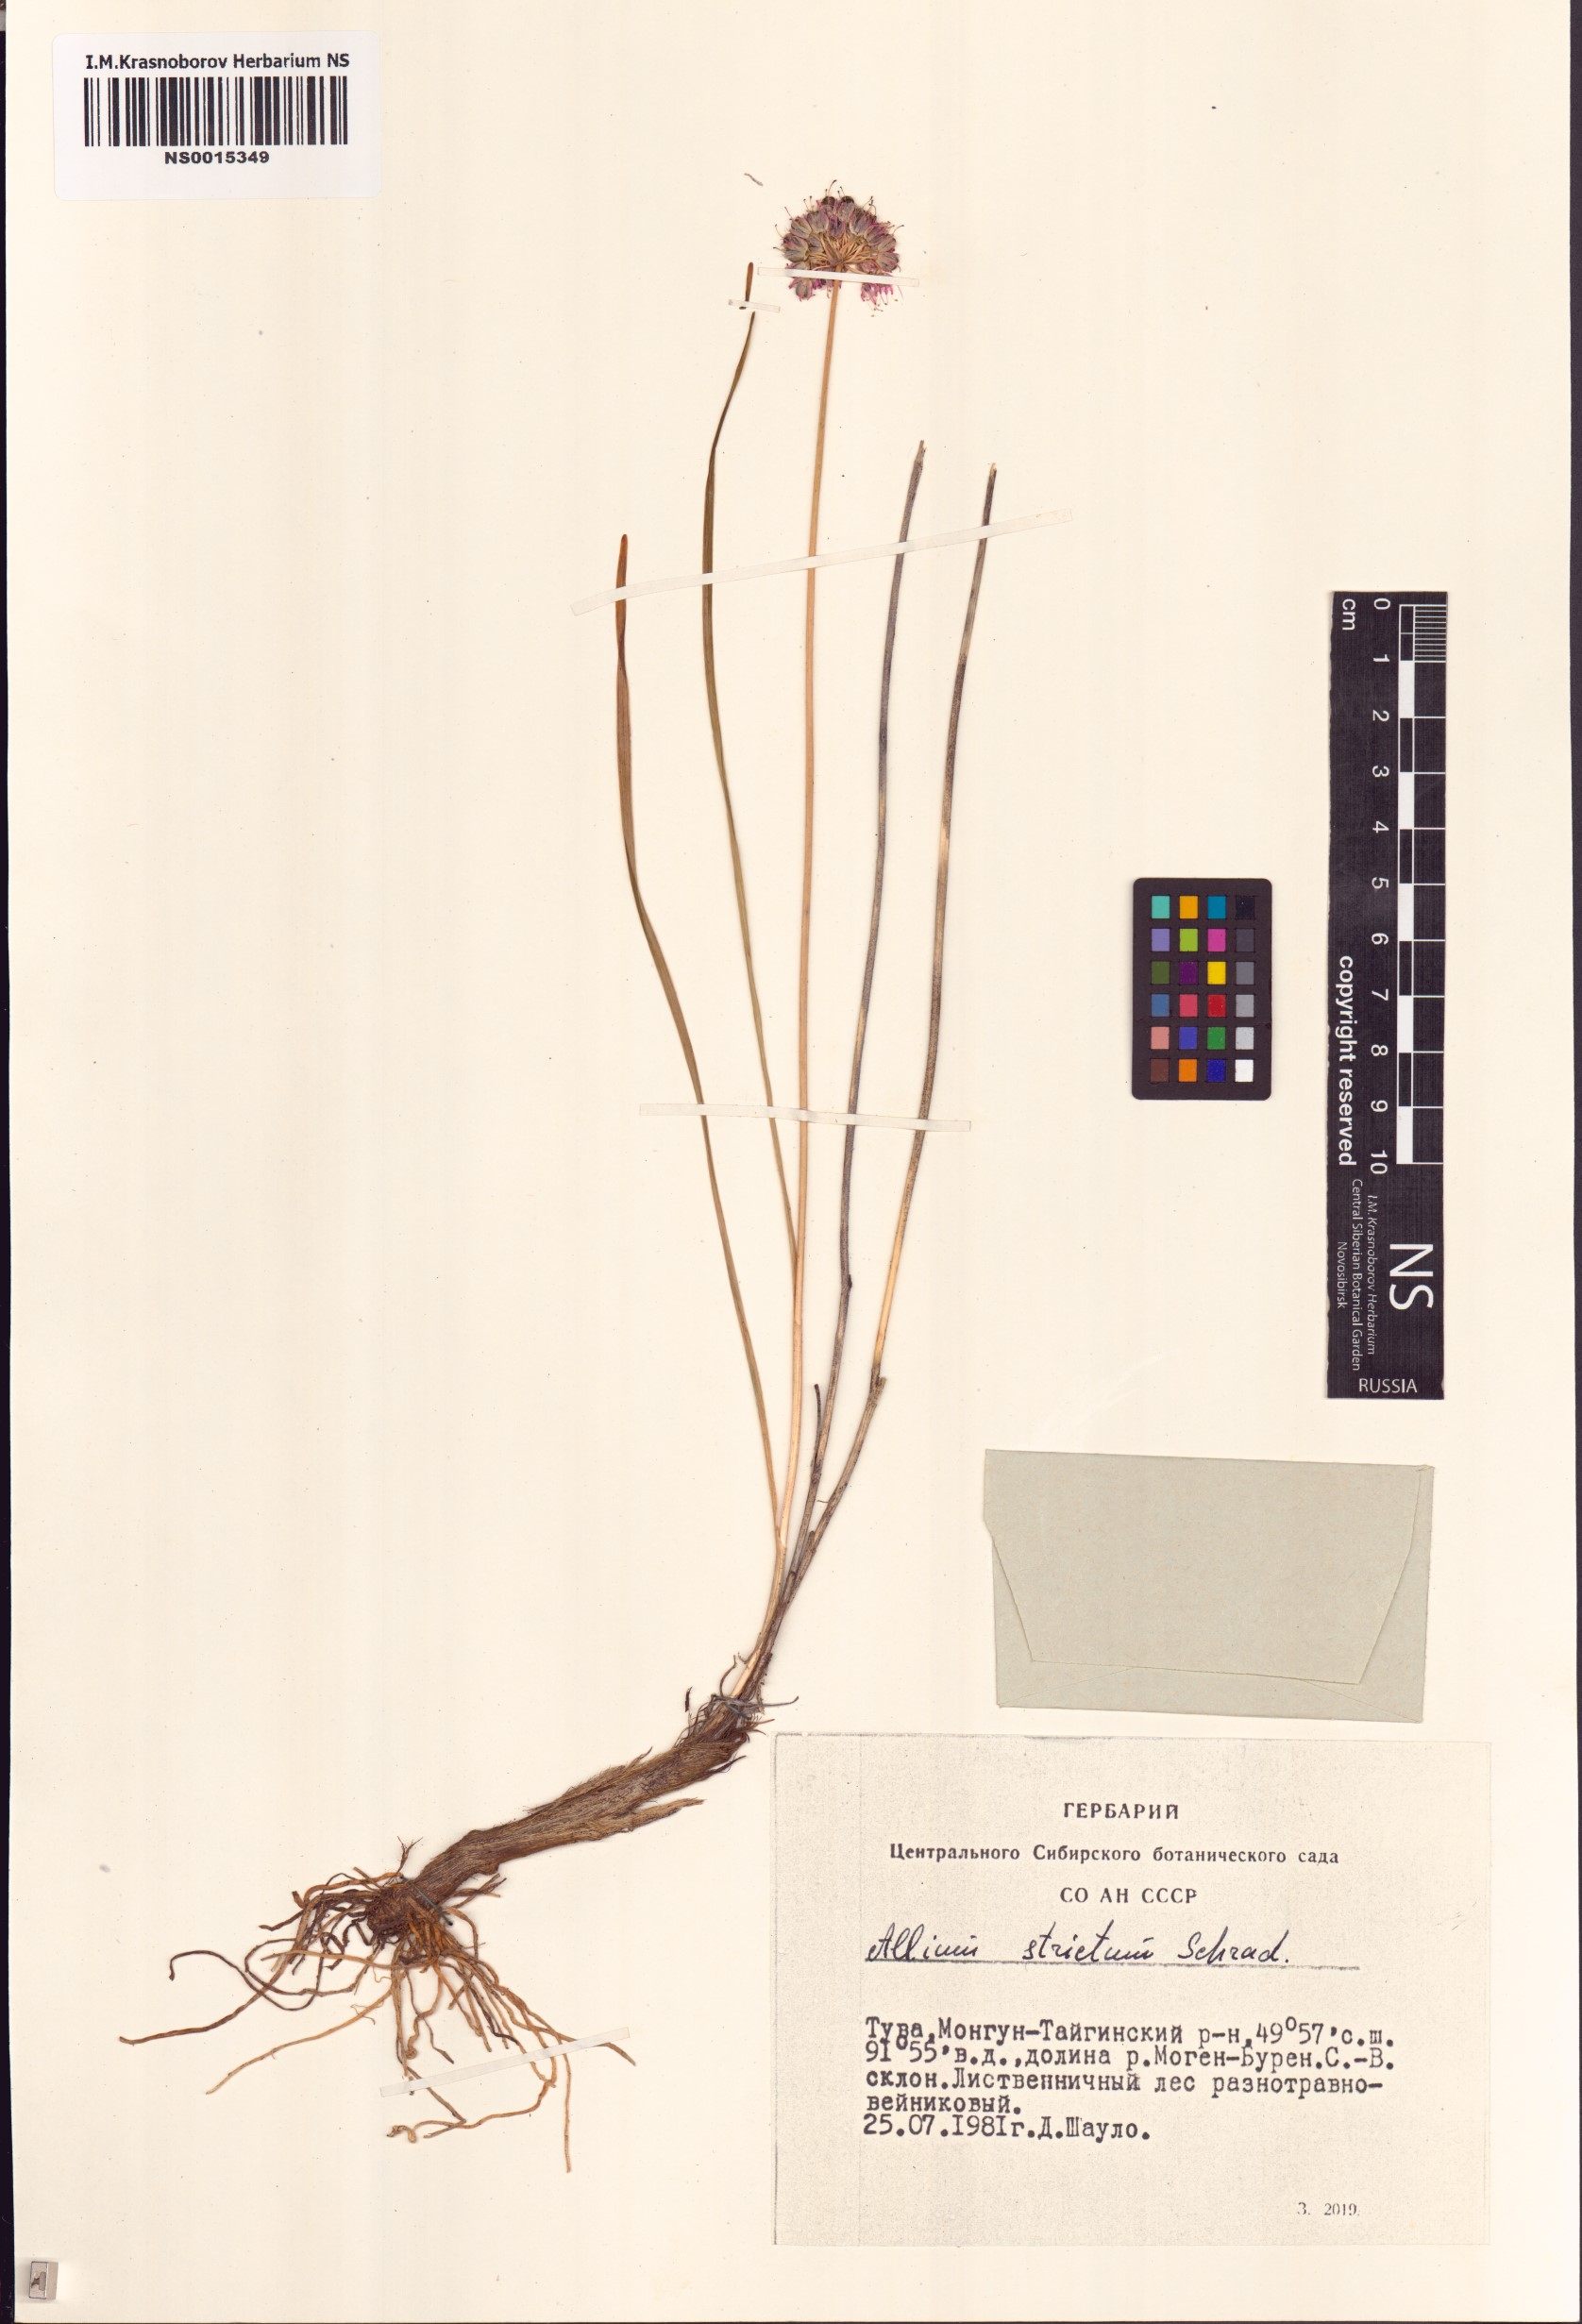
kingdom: Plantae
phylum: Tracheophyta
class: Liliopsida
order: Asparagales
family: Amaryllidaceae
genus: Allium
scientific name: Allium strictum
